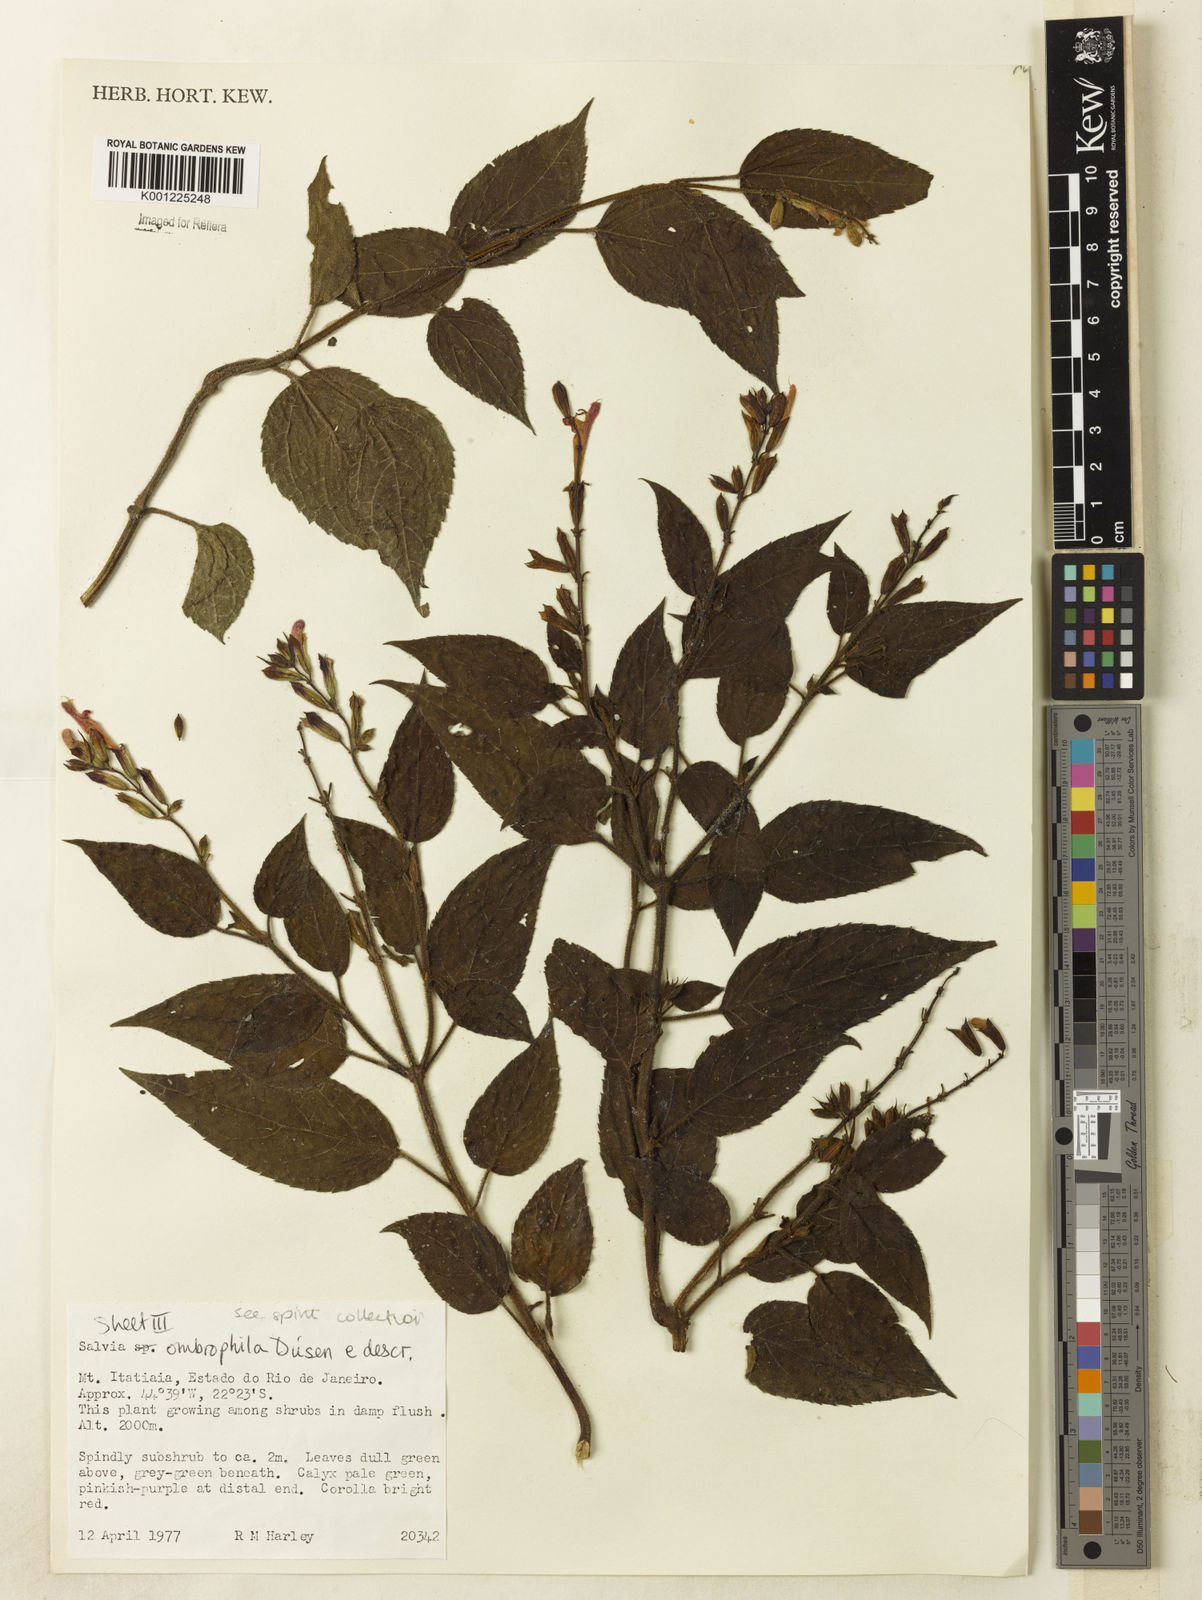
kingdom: Plantae
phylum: Tracheophyta
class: Magnoliopsida
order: Lamiales
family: Lamiaceae
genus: Salvia
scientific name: Salvia
